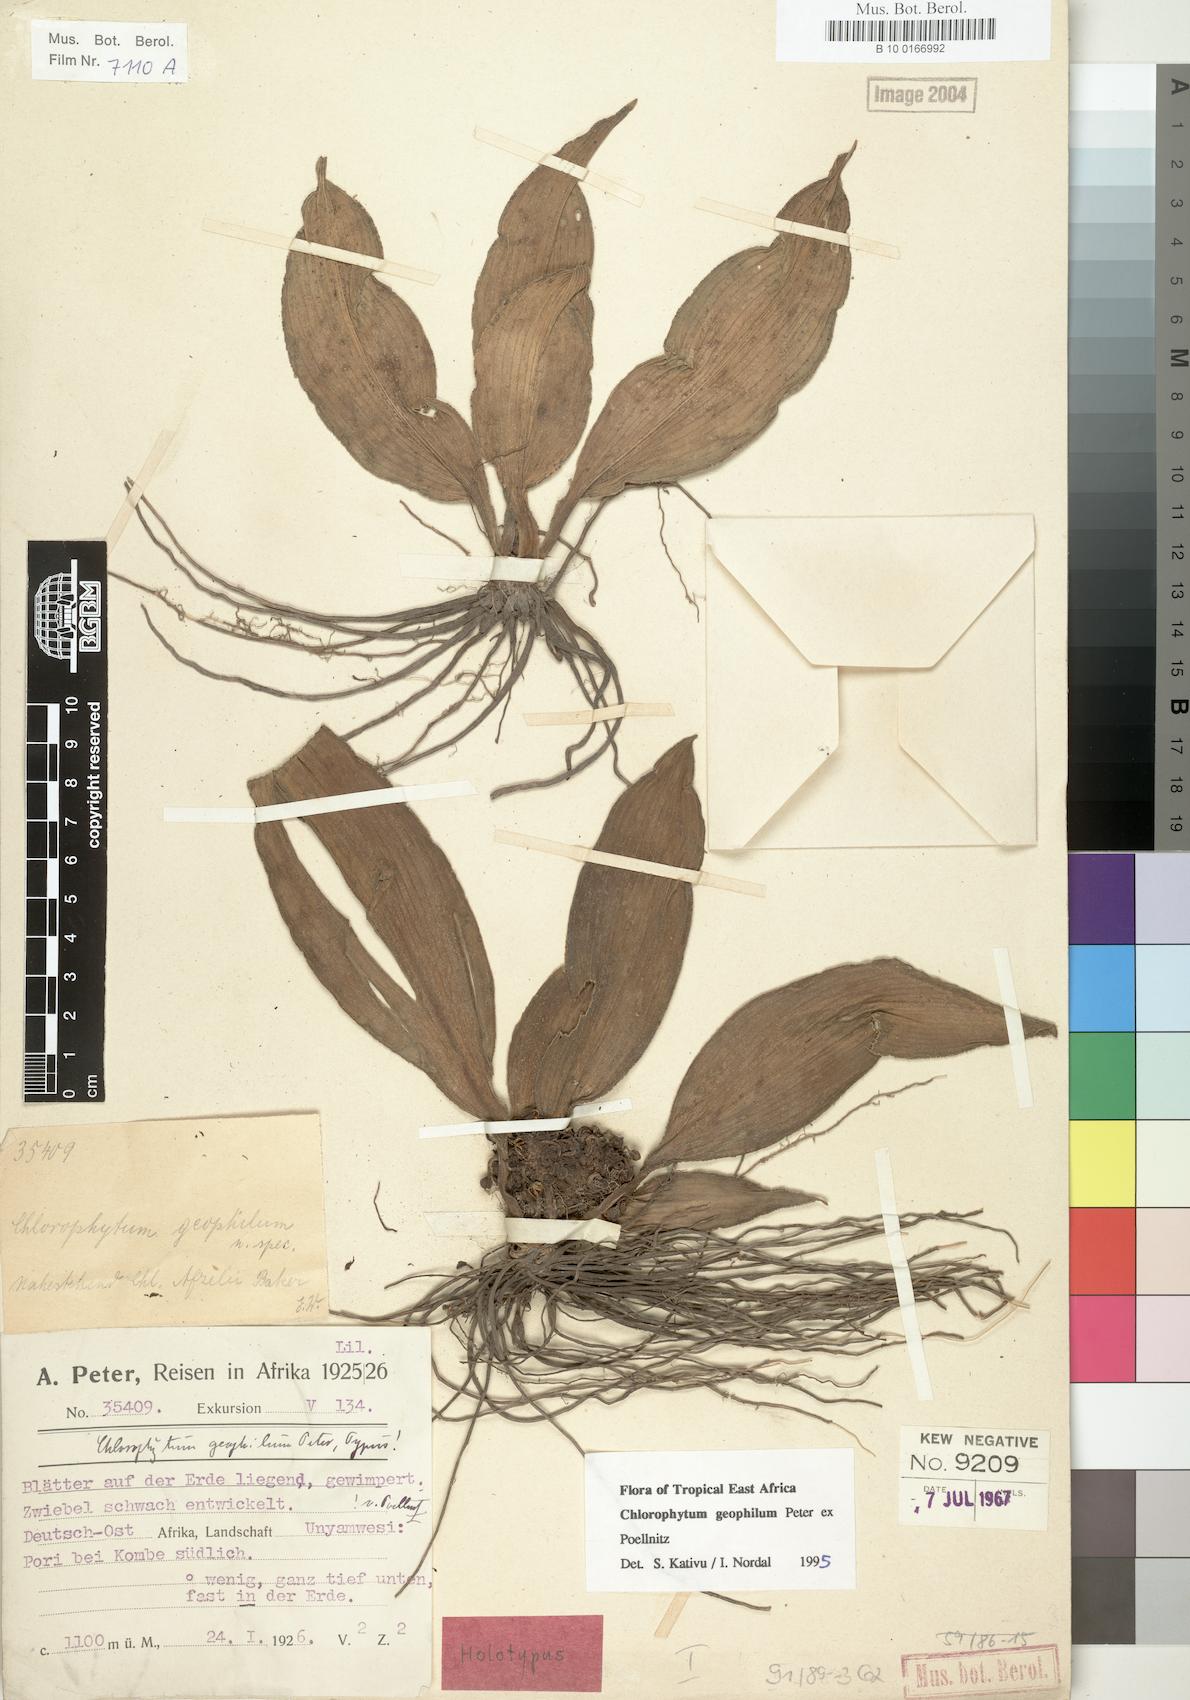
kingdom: Plantae
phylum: Tracheophyta
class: Liliopsida
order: Asparagales
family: Asparagaceae
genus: Chlorophytum
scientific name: Chlorophytum geophilum
